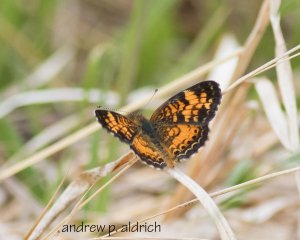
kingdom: Animalia
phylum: Arthropoda
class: Insecta
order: Lepidoptera
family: Nymphalidae
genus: Phyciodes
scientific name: Phyciodes
